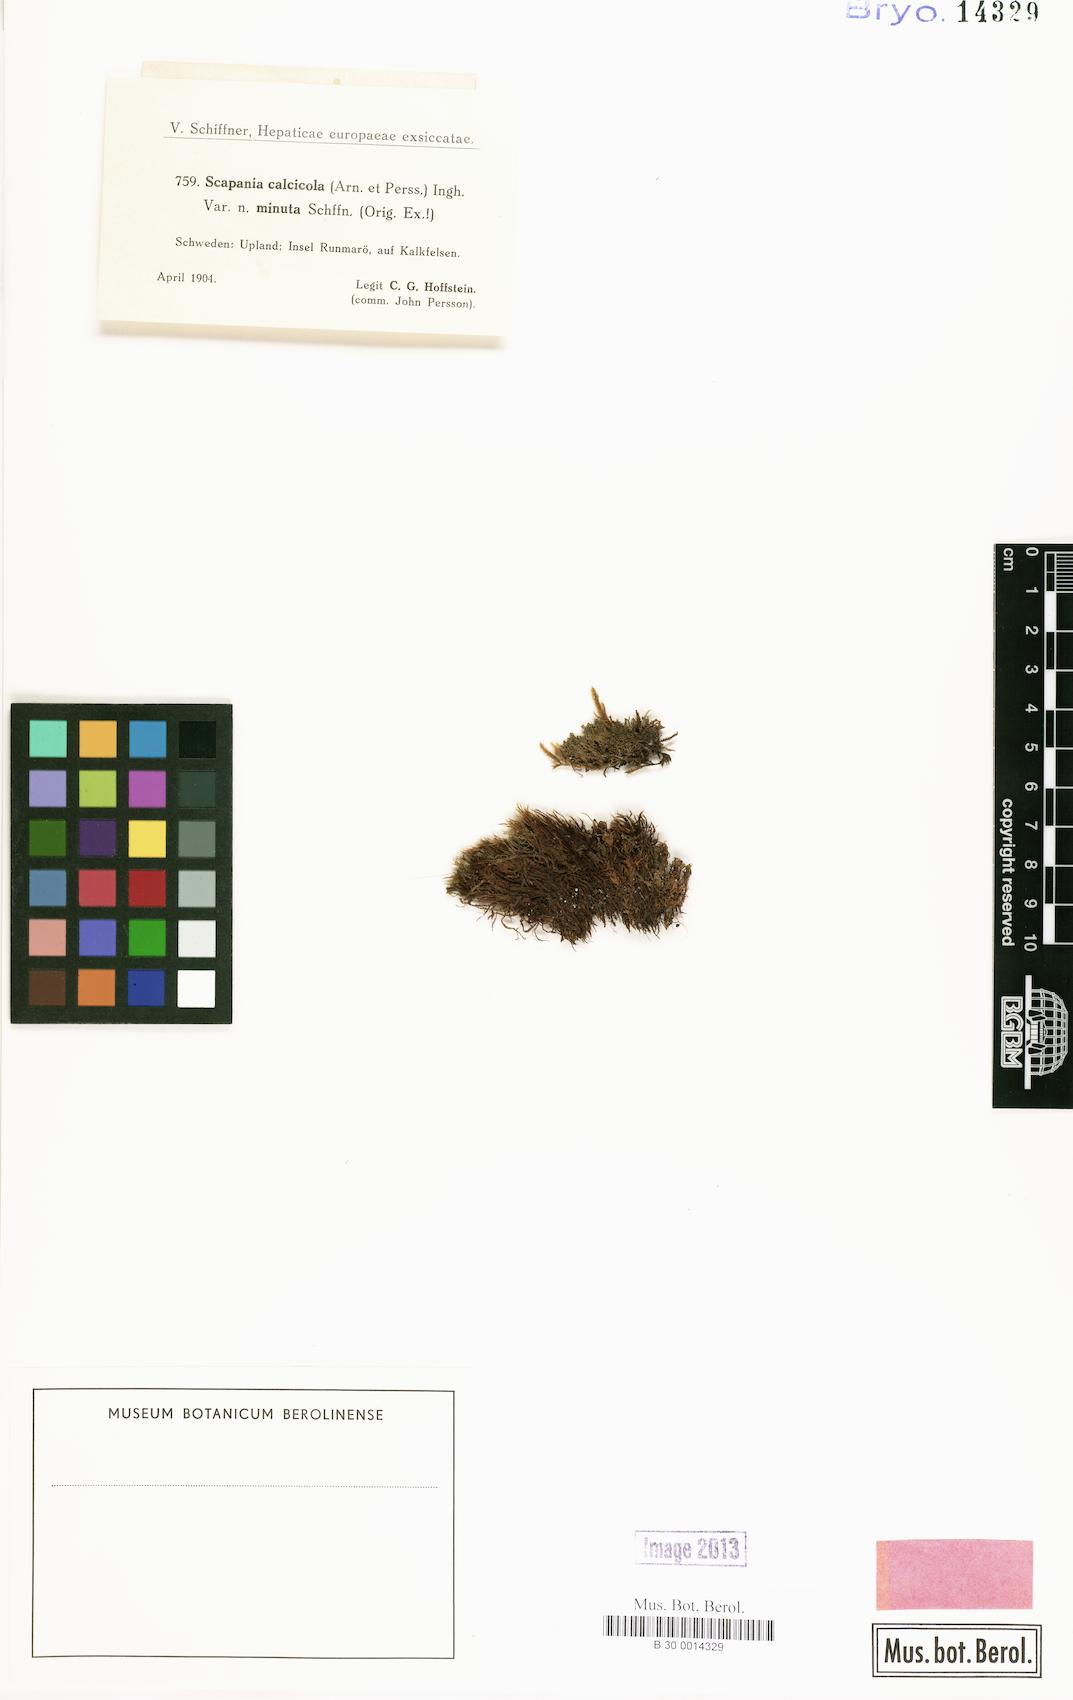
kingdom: Plantae
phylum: Marchantiophyta
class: Jungermanniopsida
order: Jungermanniales
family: Scapaniaceae
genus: Scapania
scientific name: Scapania calcicola
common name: Calcicolous earwort
